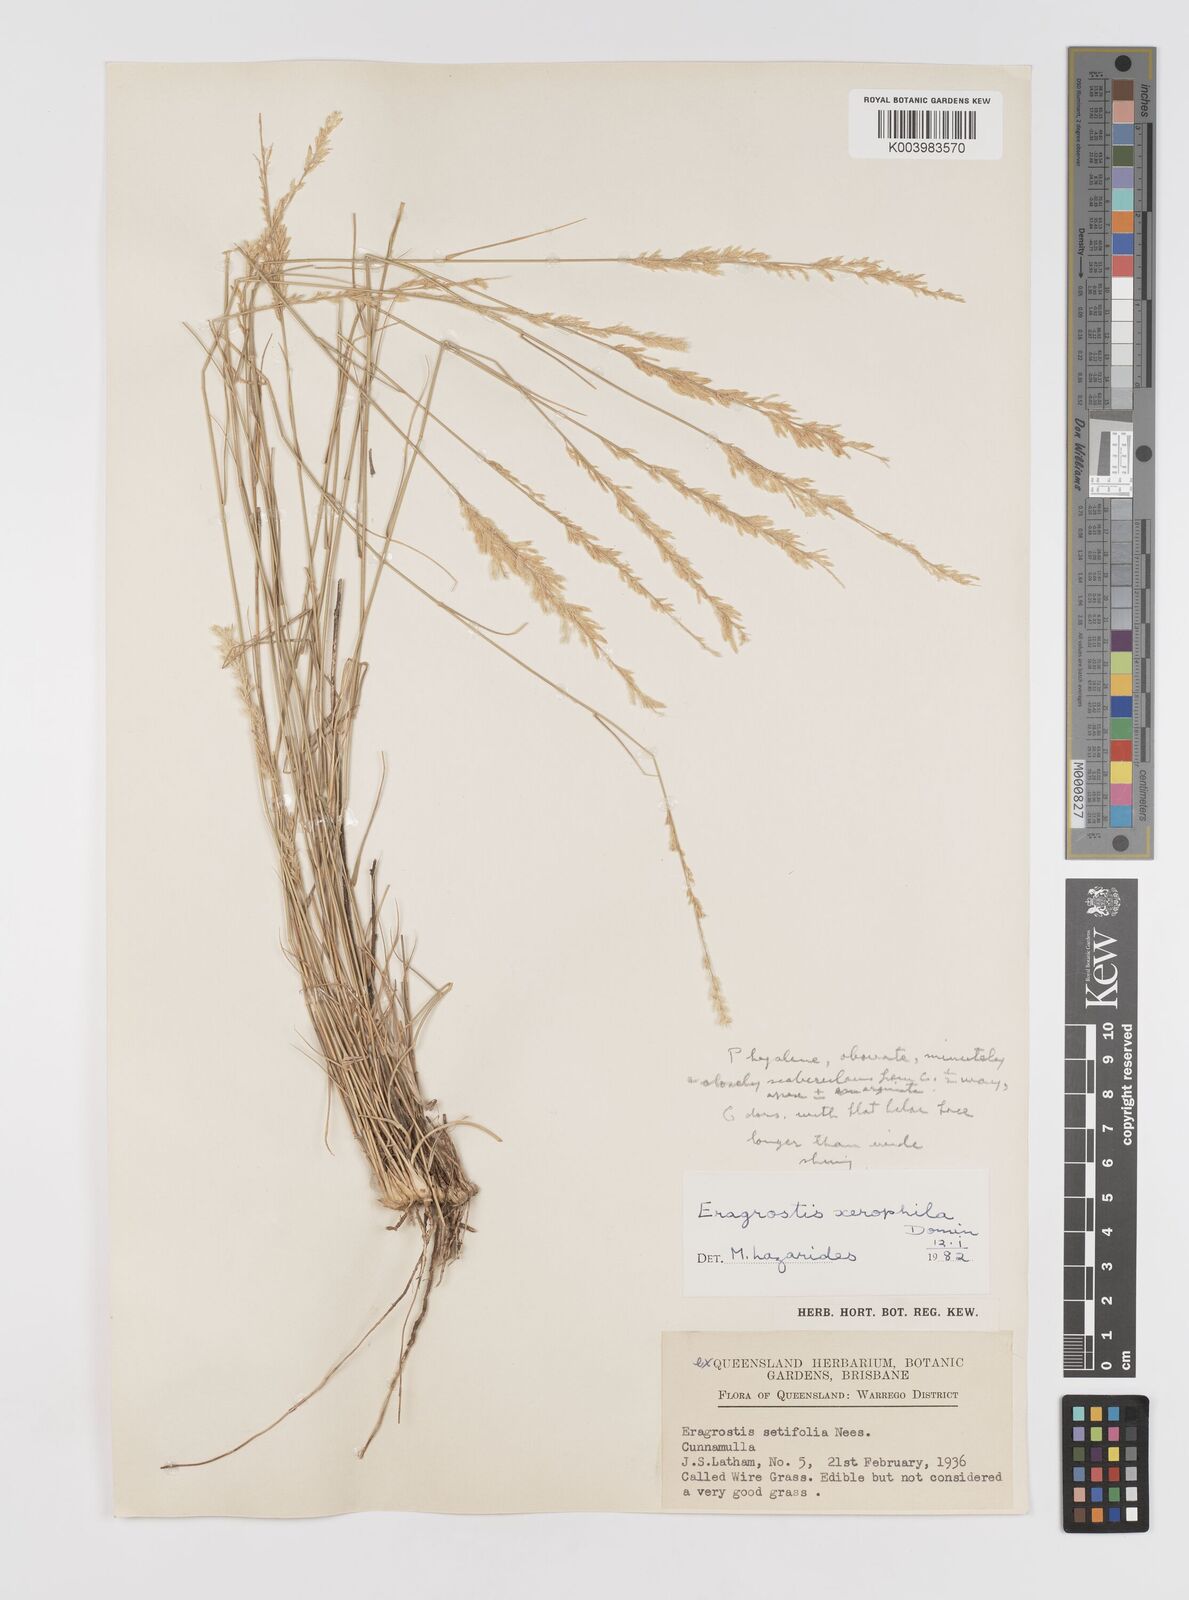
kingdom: Plantae
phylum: Tracheophyta
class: Liliopsida
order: Poales
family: Poaceae
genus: Eragrostis
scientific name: Eragrostis xerophila
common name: Wire wandarrie grass
